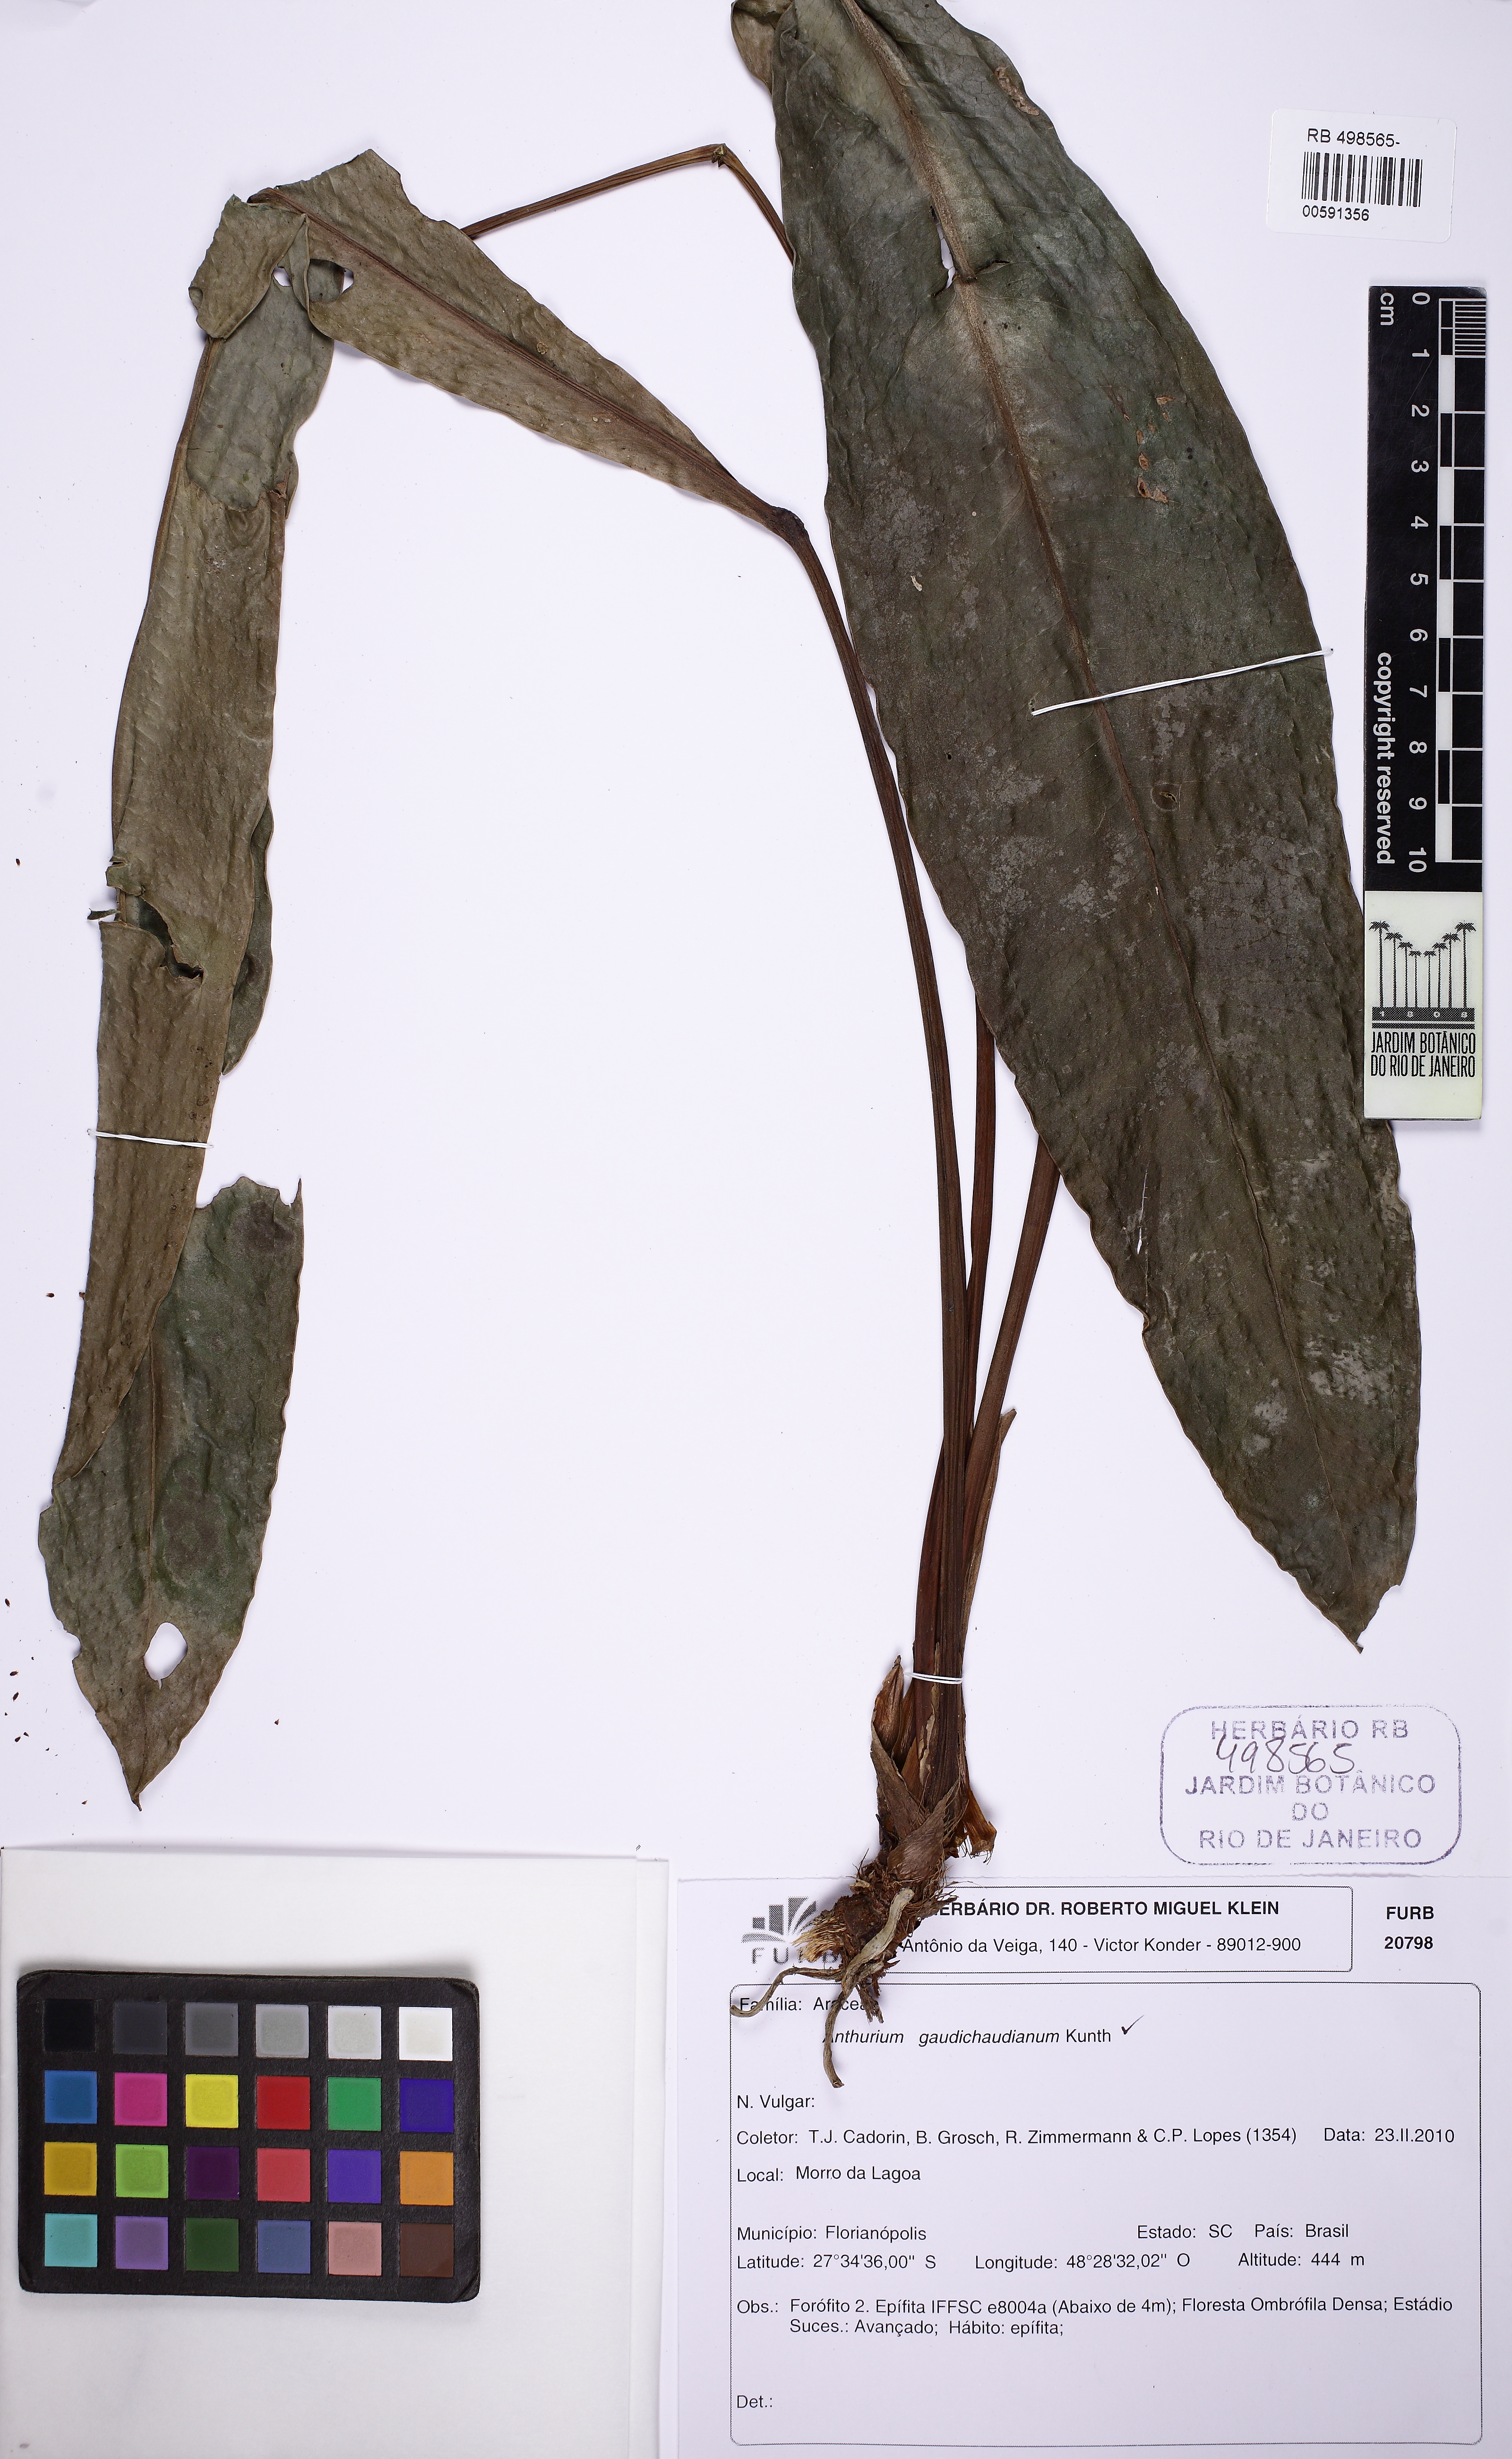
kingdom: Plantae
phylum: Tracheophyta
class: Liliopsida
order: Alismatales
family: Araceae
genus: Anthurium
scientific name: Anthurium gaudichaudianum
